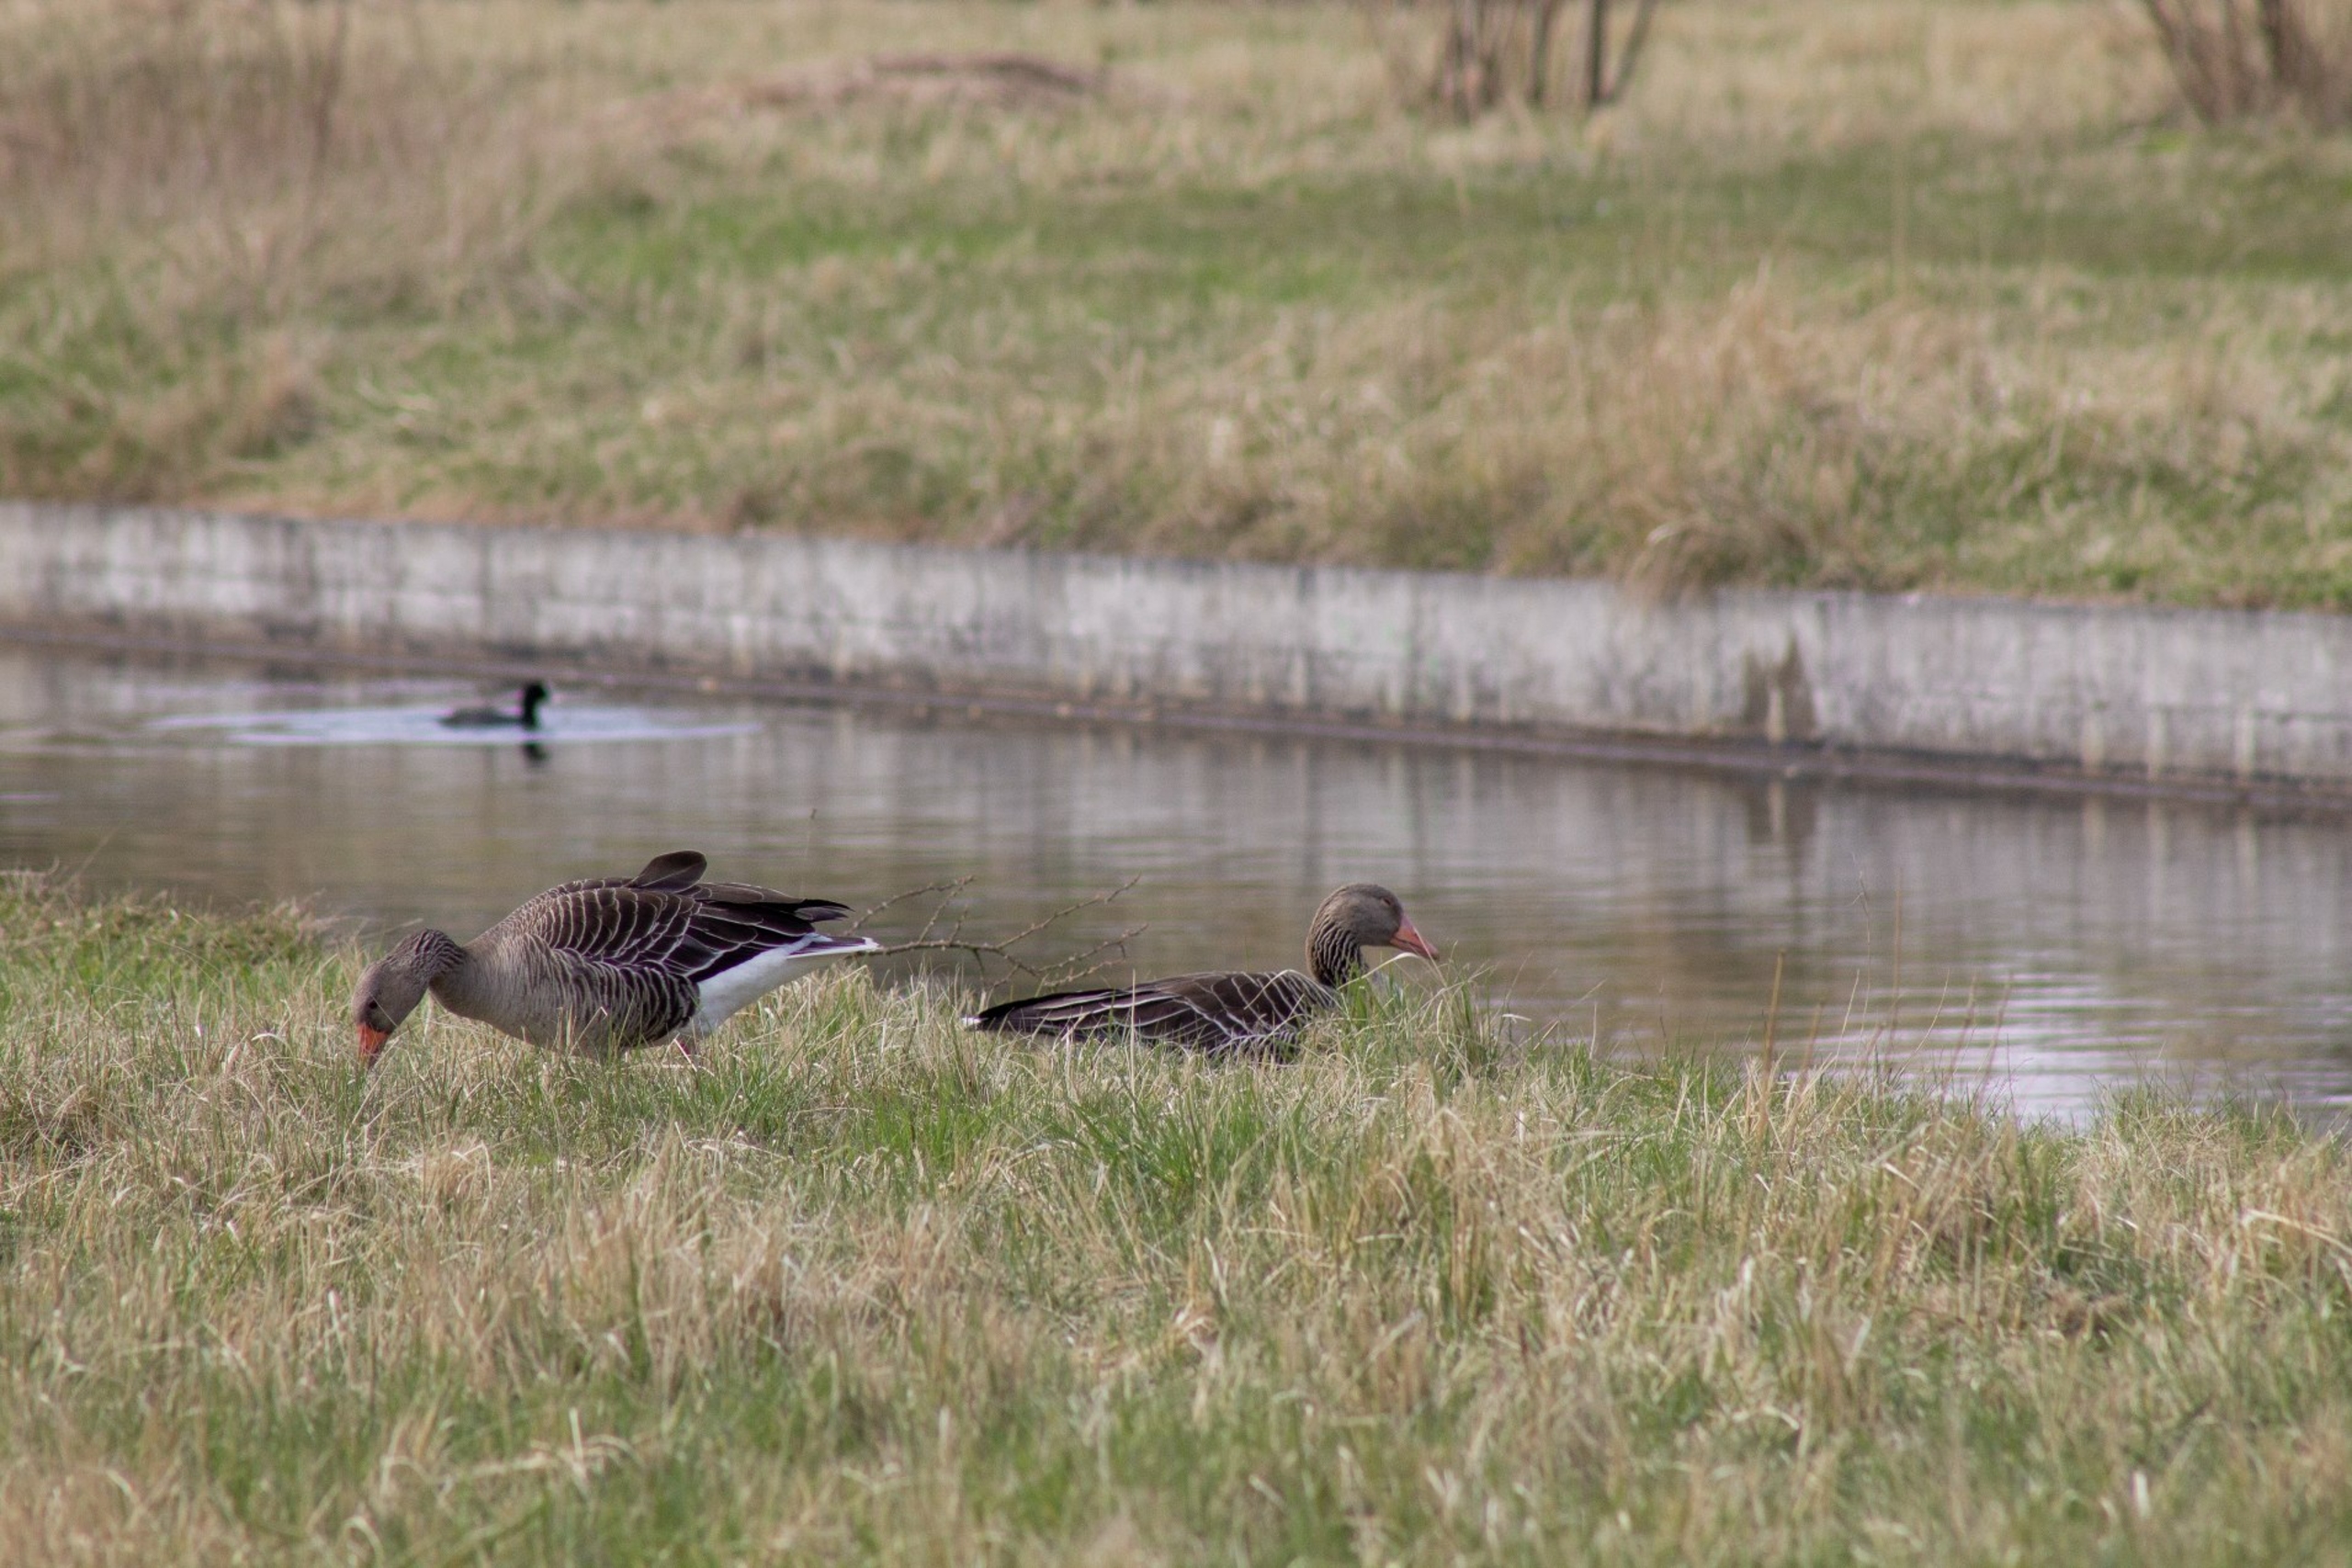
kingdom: Animalia
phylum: Chordata
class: Aves
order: Anseriformes
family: Anatidae
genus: Anser
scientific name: Anser anser
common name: Grågås
